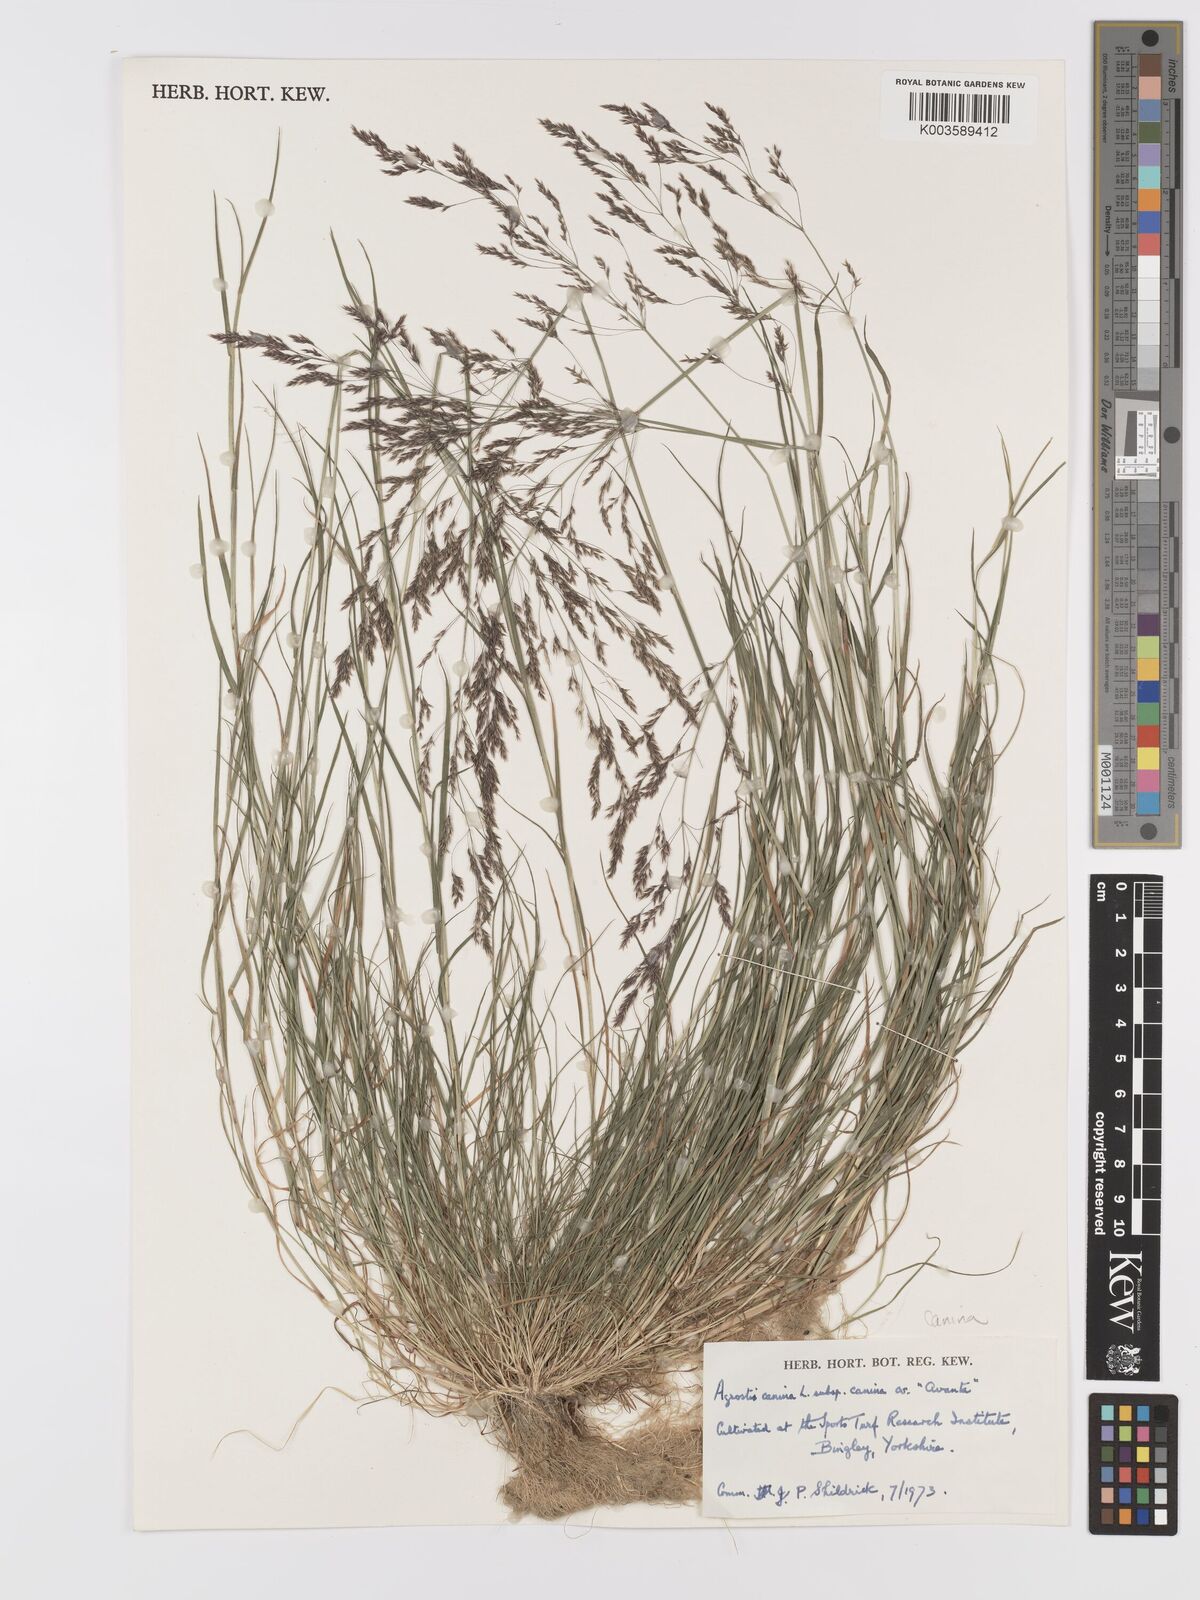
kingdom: Plantae
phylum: Tracheophyta
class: Liliopsida
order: Poales
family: Poaceae
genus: Agrostis
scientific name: Agrostis canina
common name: Velvet bent
